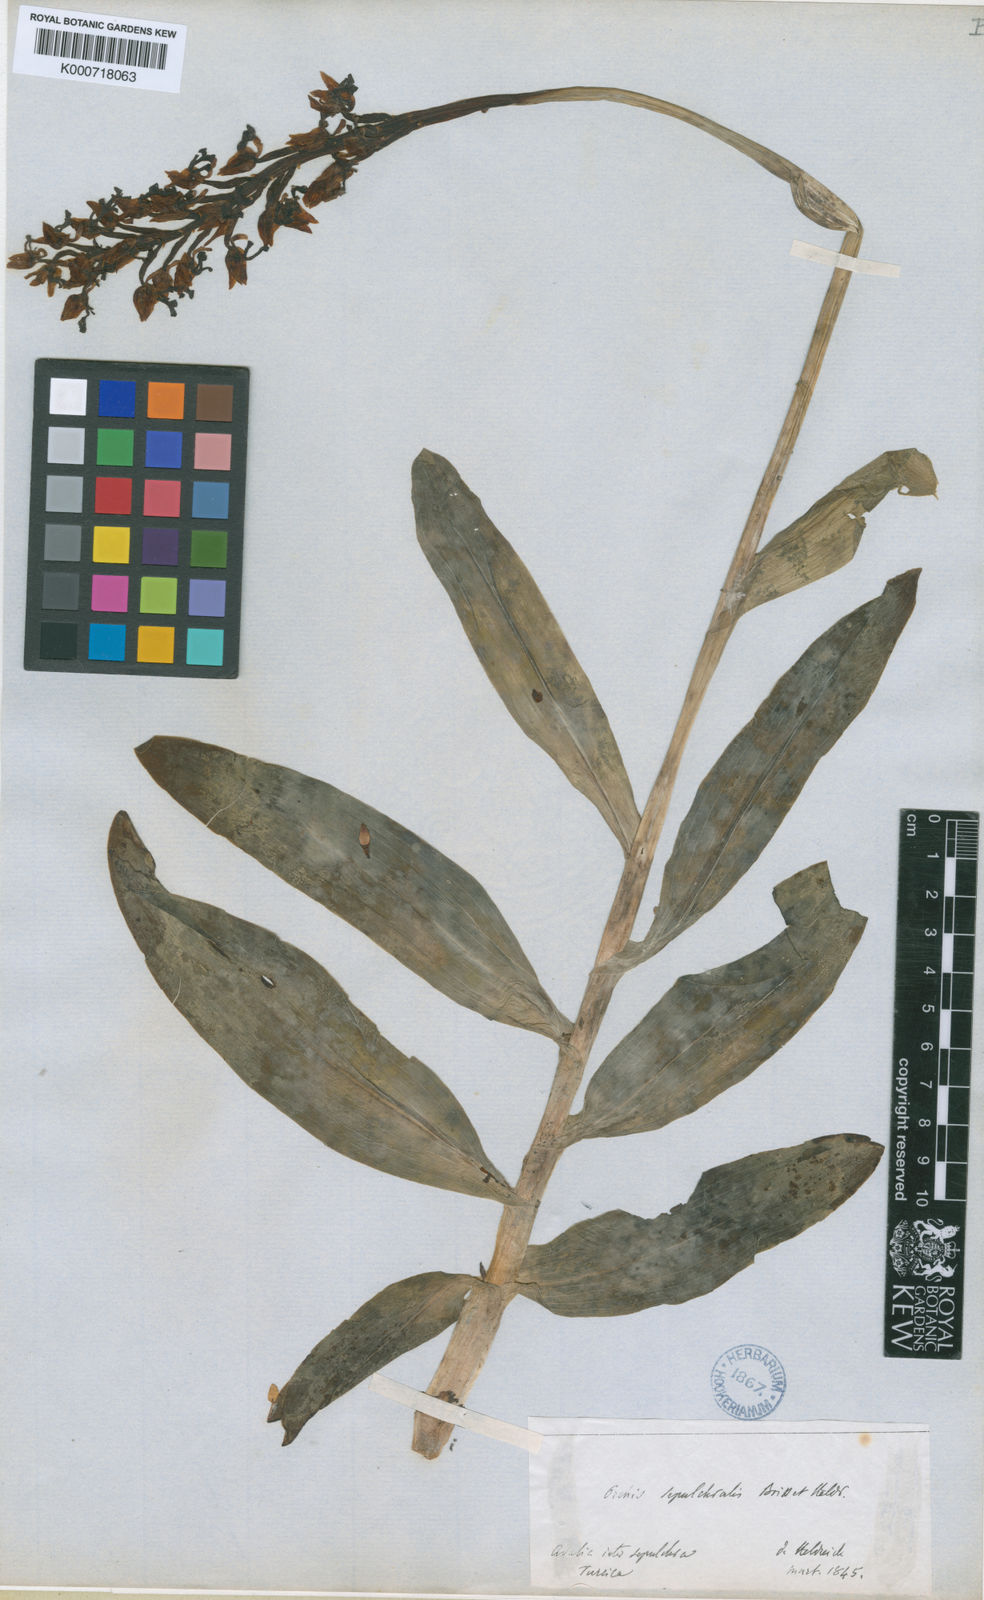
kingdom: Plantae
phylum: Tracheophyta
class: Liliopsida
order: Asparagales
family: Orchidaceae
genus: Orchis
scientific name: Orchis punctulata
